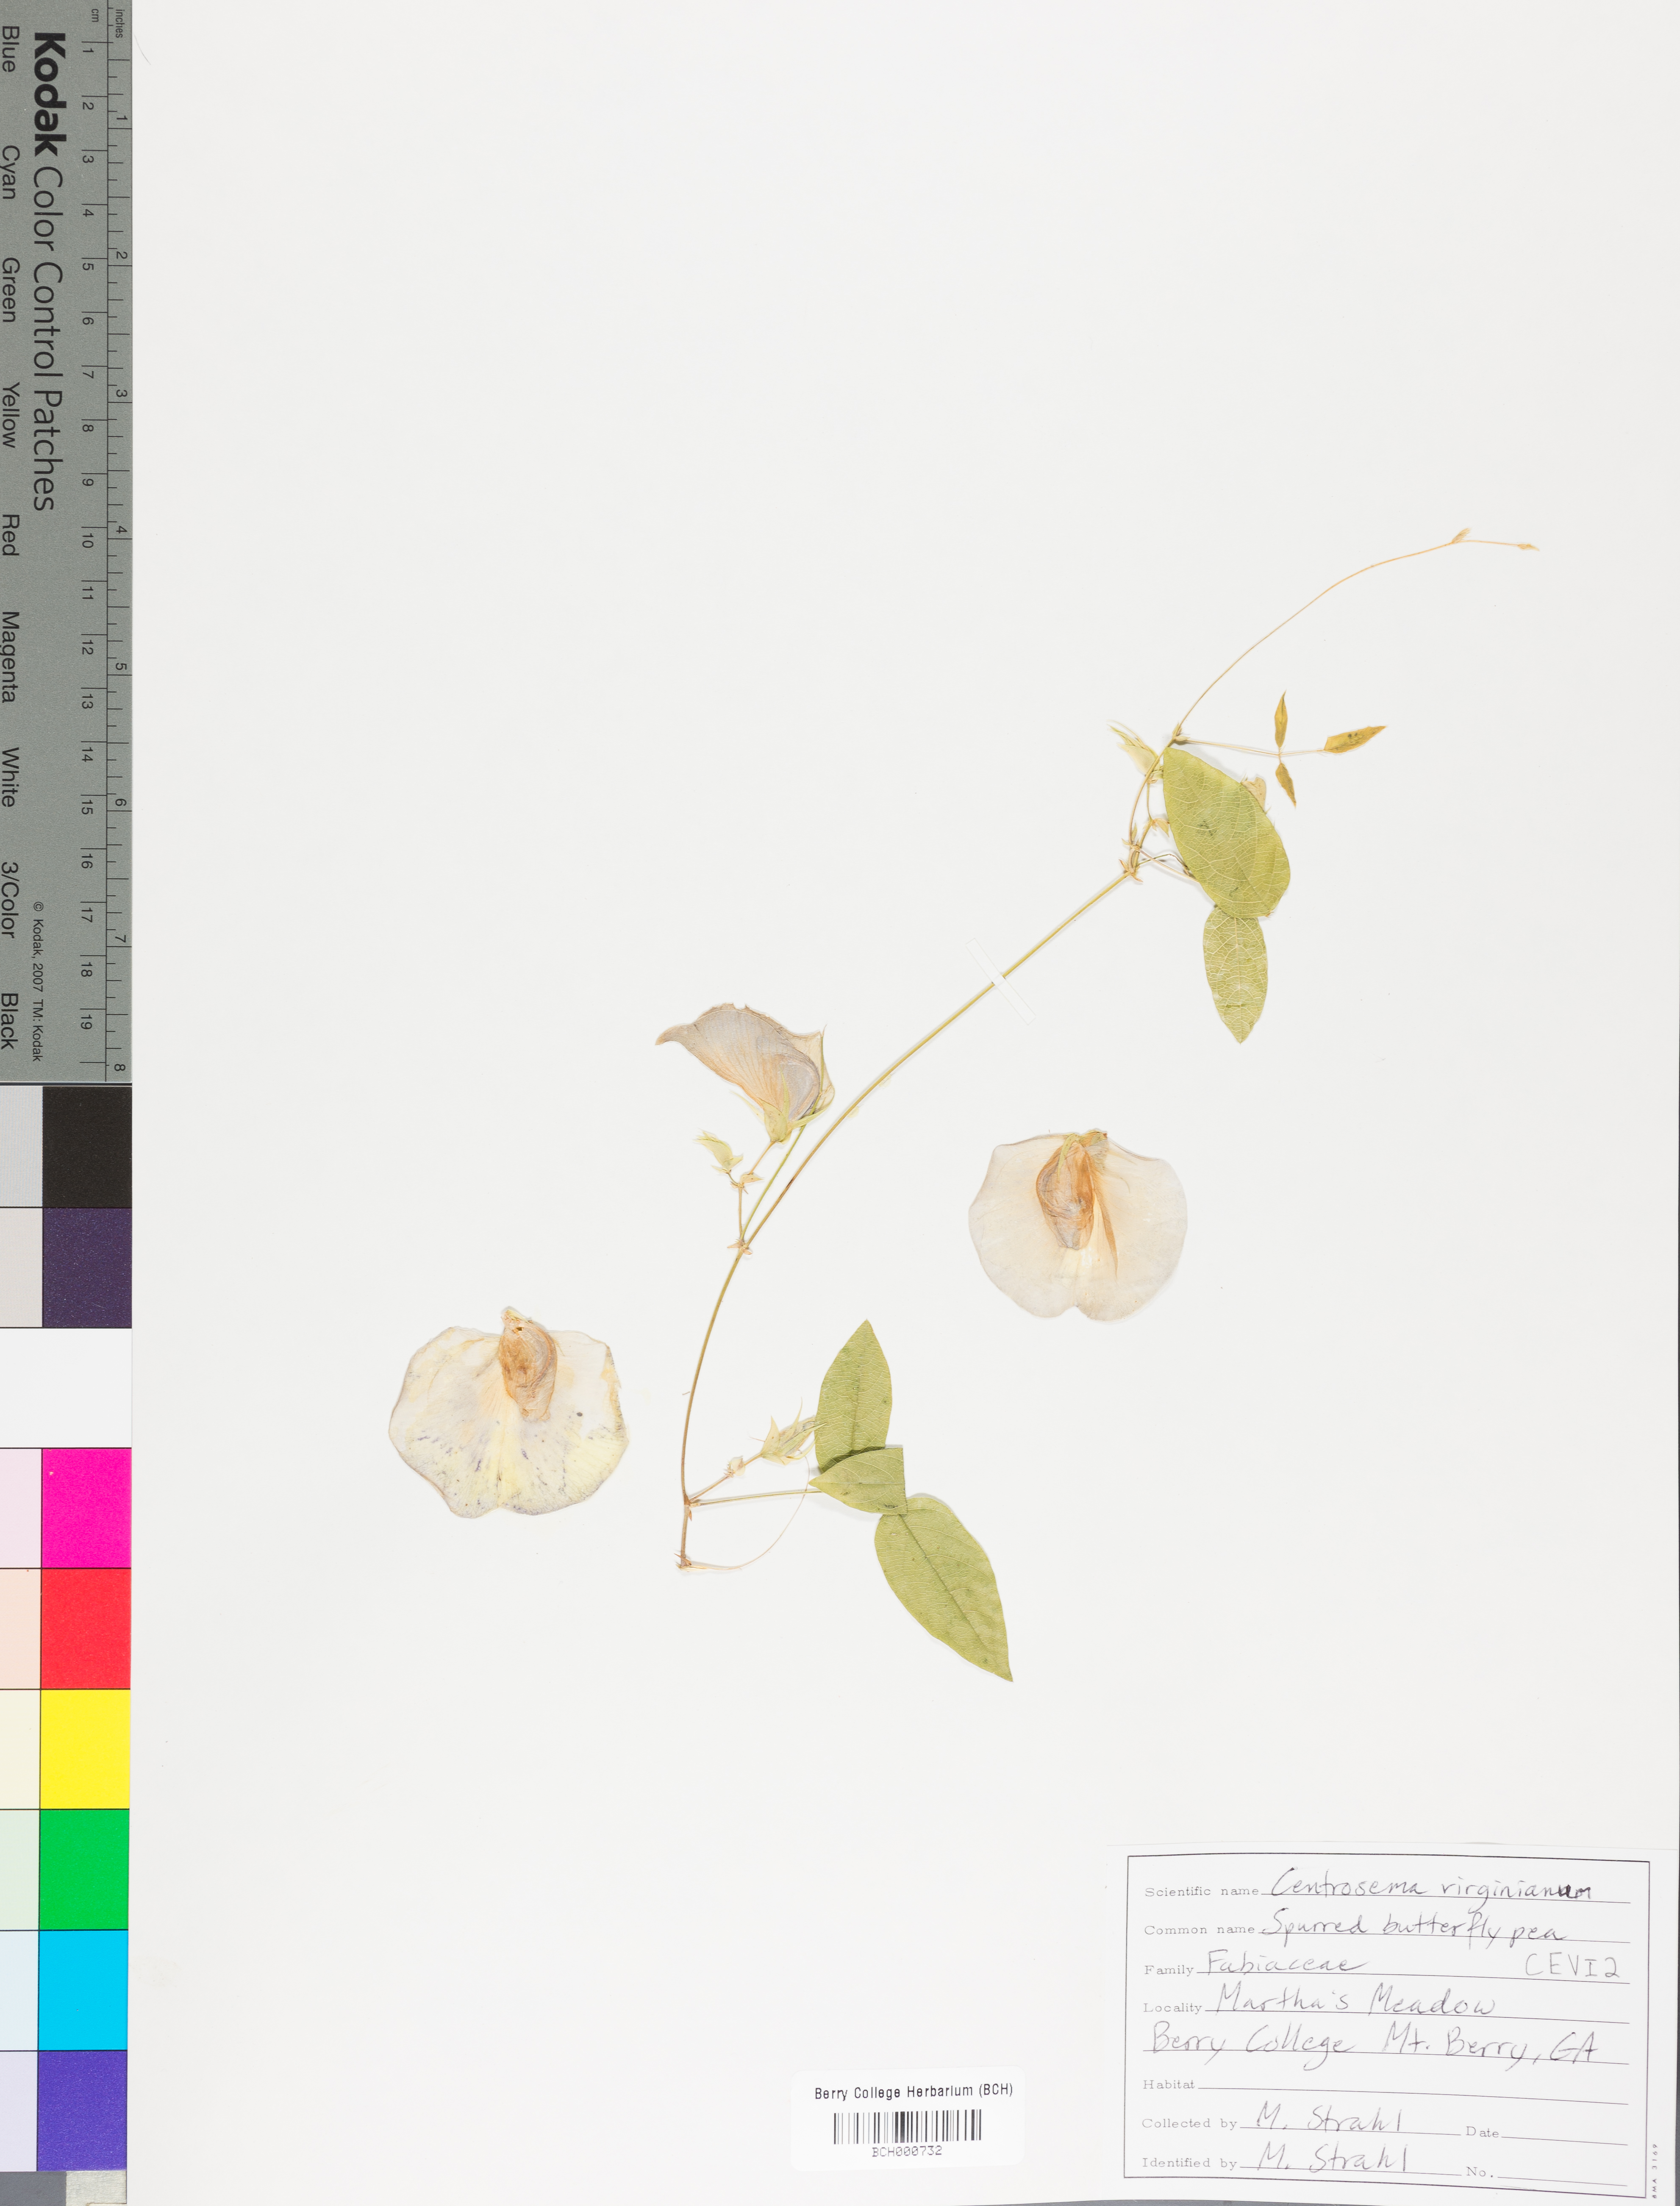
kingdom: Plantae
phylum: Tracheophyta
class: Magnoliopsida
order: Fabales
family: Fabaceae
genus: Centrosema
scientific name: Centrosema virginianum
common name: Butterfly-pea
